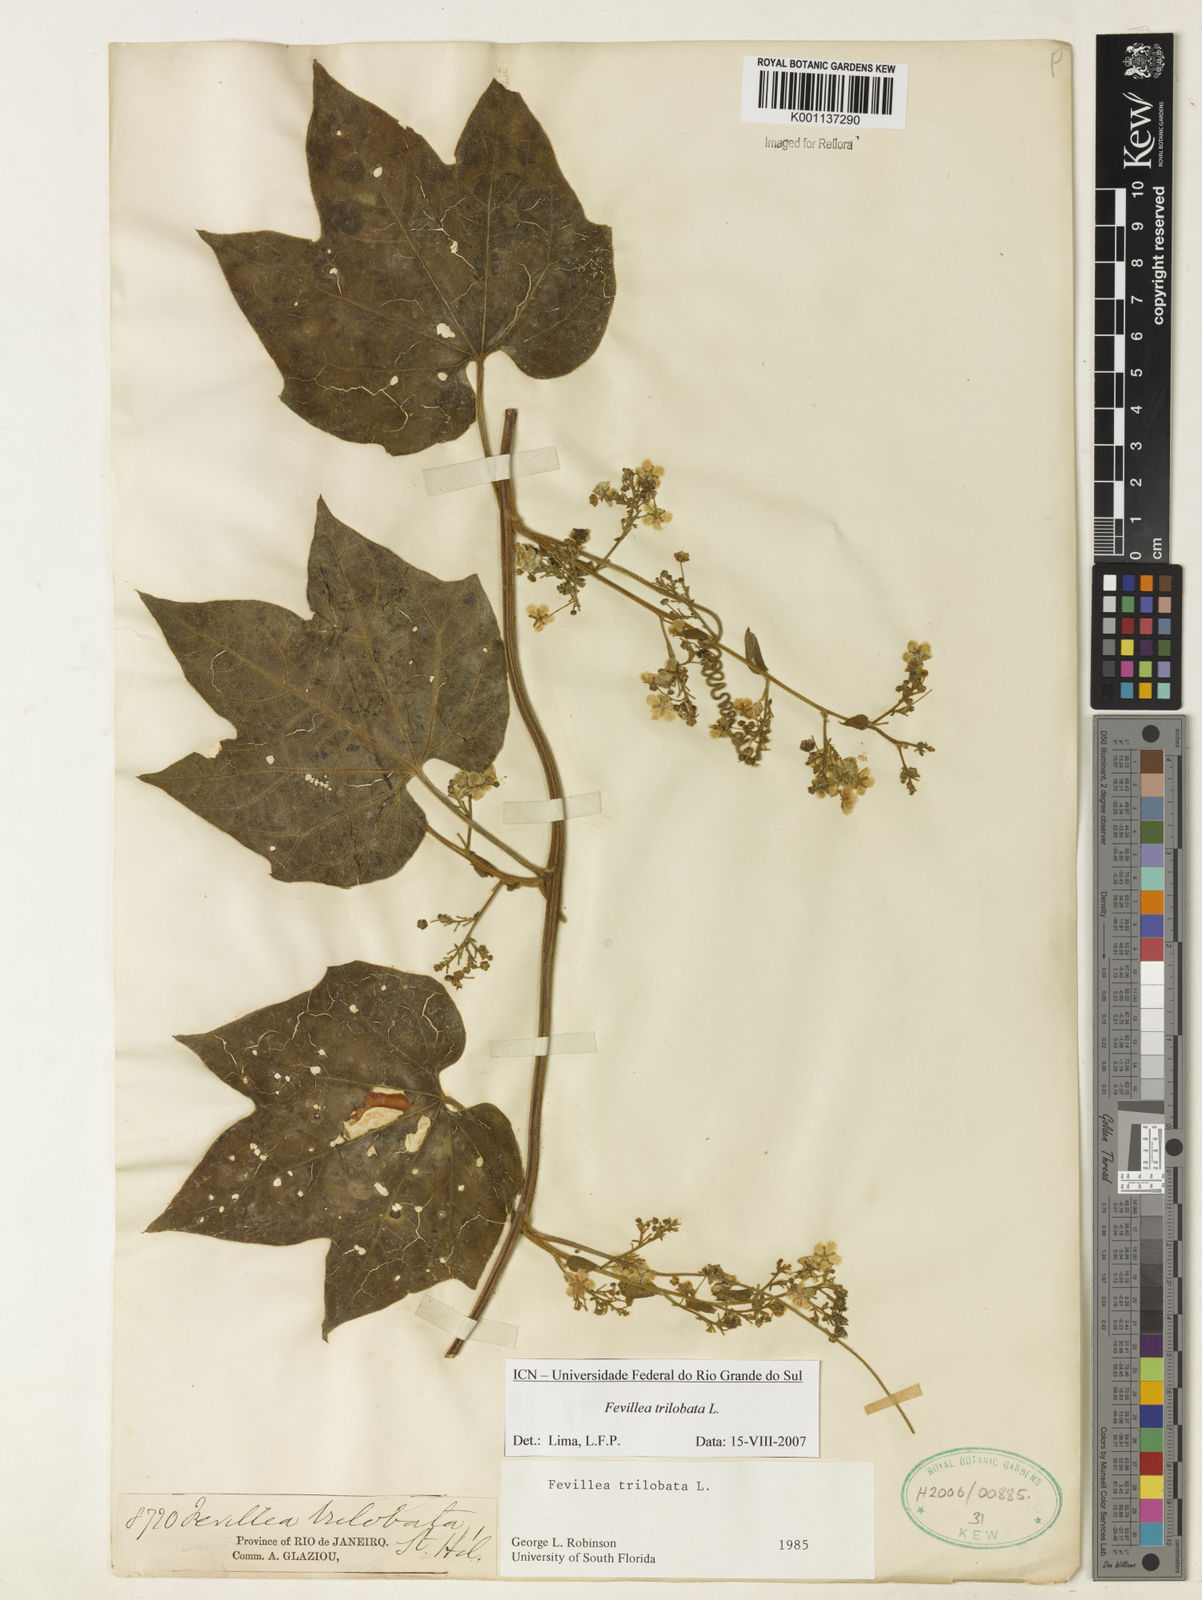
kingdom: Plantae
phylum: Tracheophyta
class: Magnoliopsida
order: Cucurbitales
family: Cucurbitaceae
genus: Fevillea
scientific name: Fevillea trilobata
